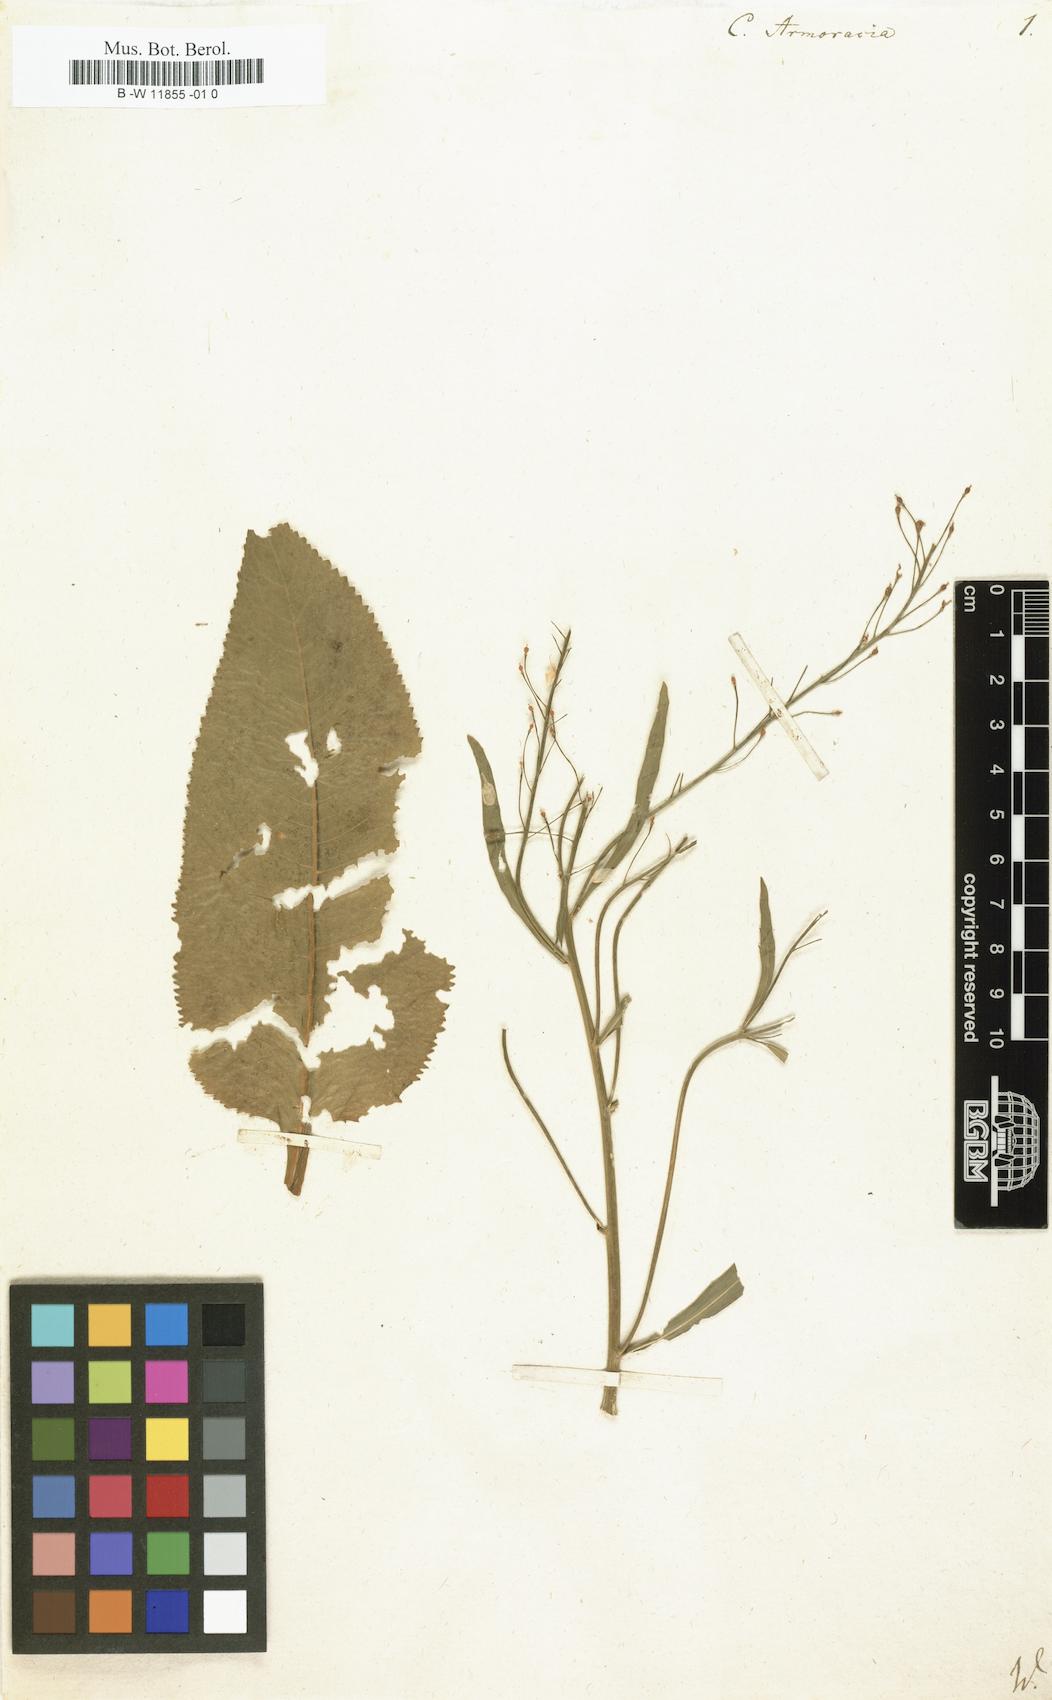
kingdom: Plantae
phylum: Tracheophyta
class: Magnoliopsida
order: Brassicales
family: Brassicaceae
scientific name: Brassicaceae
